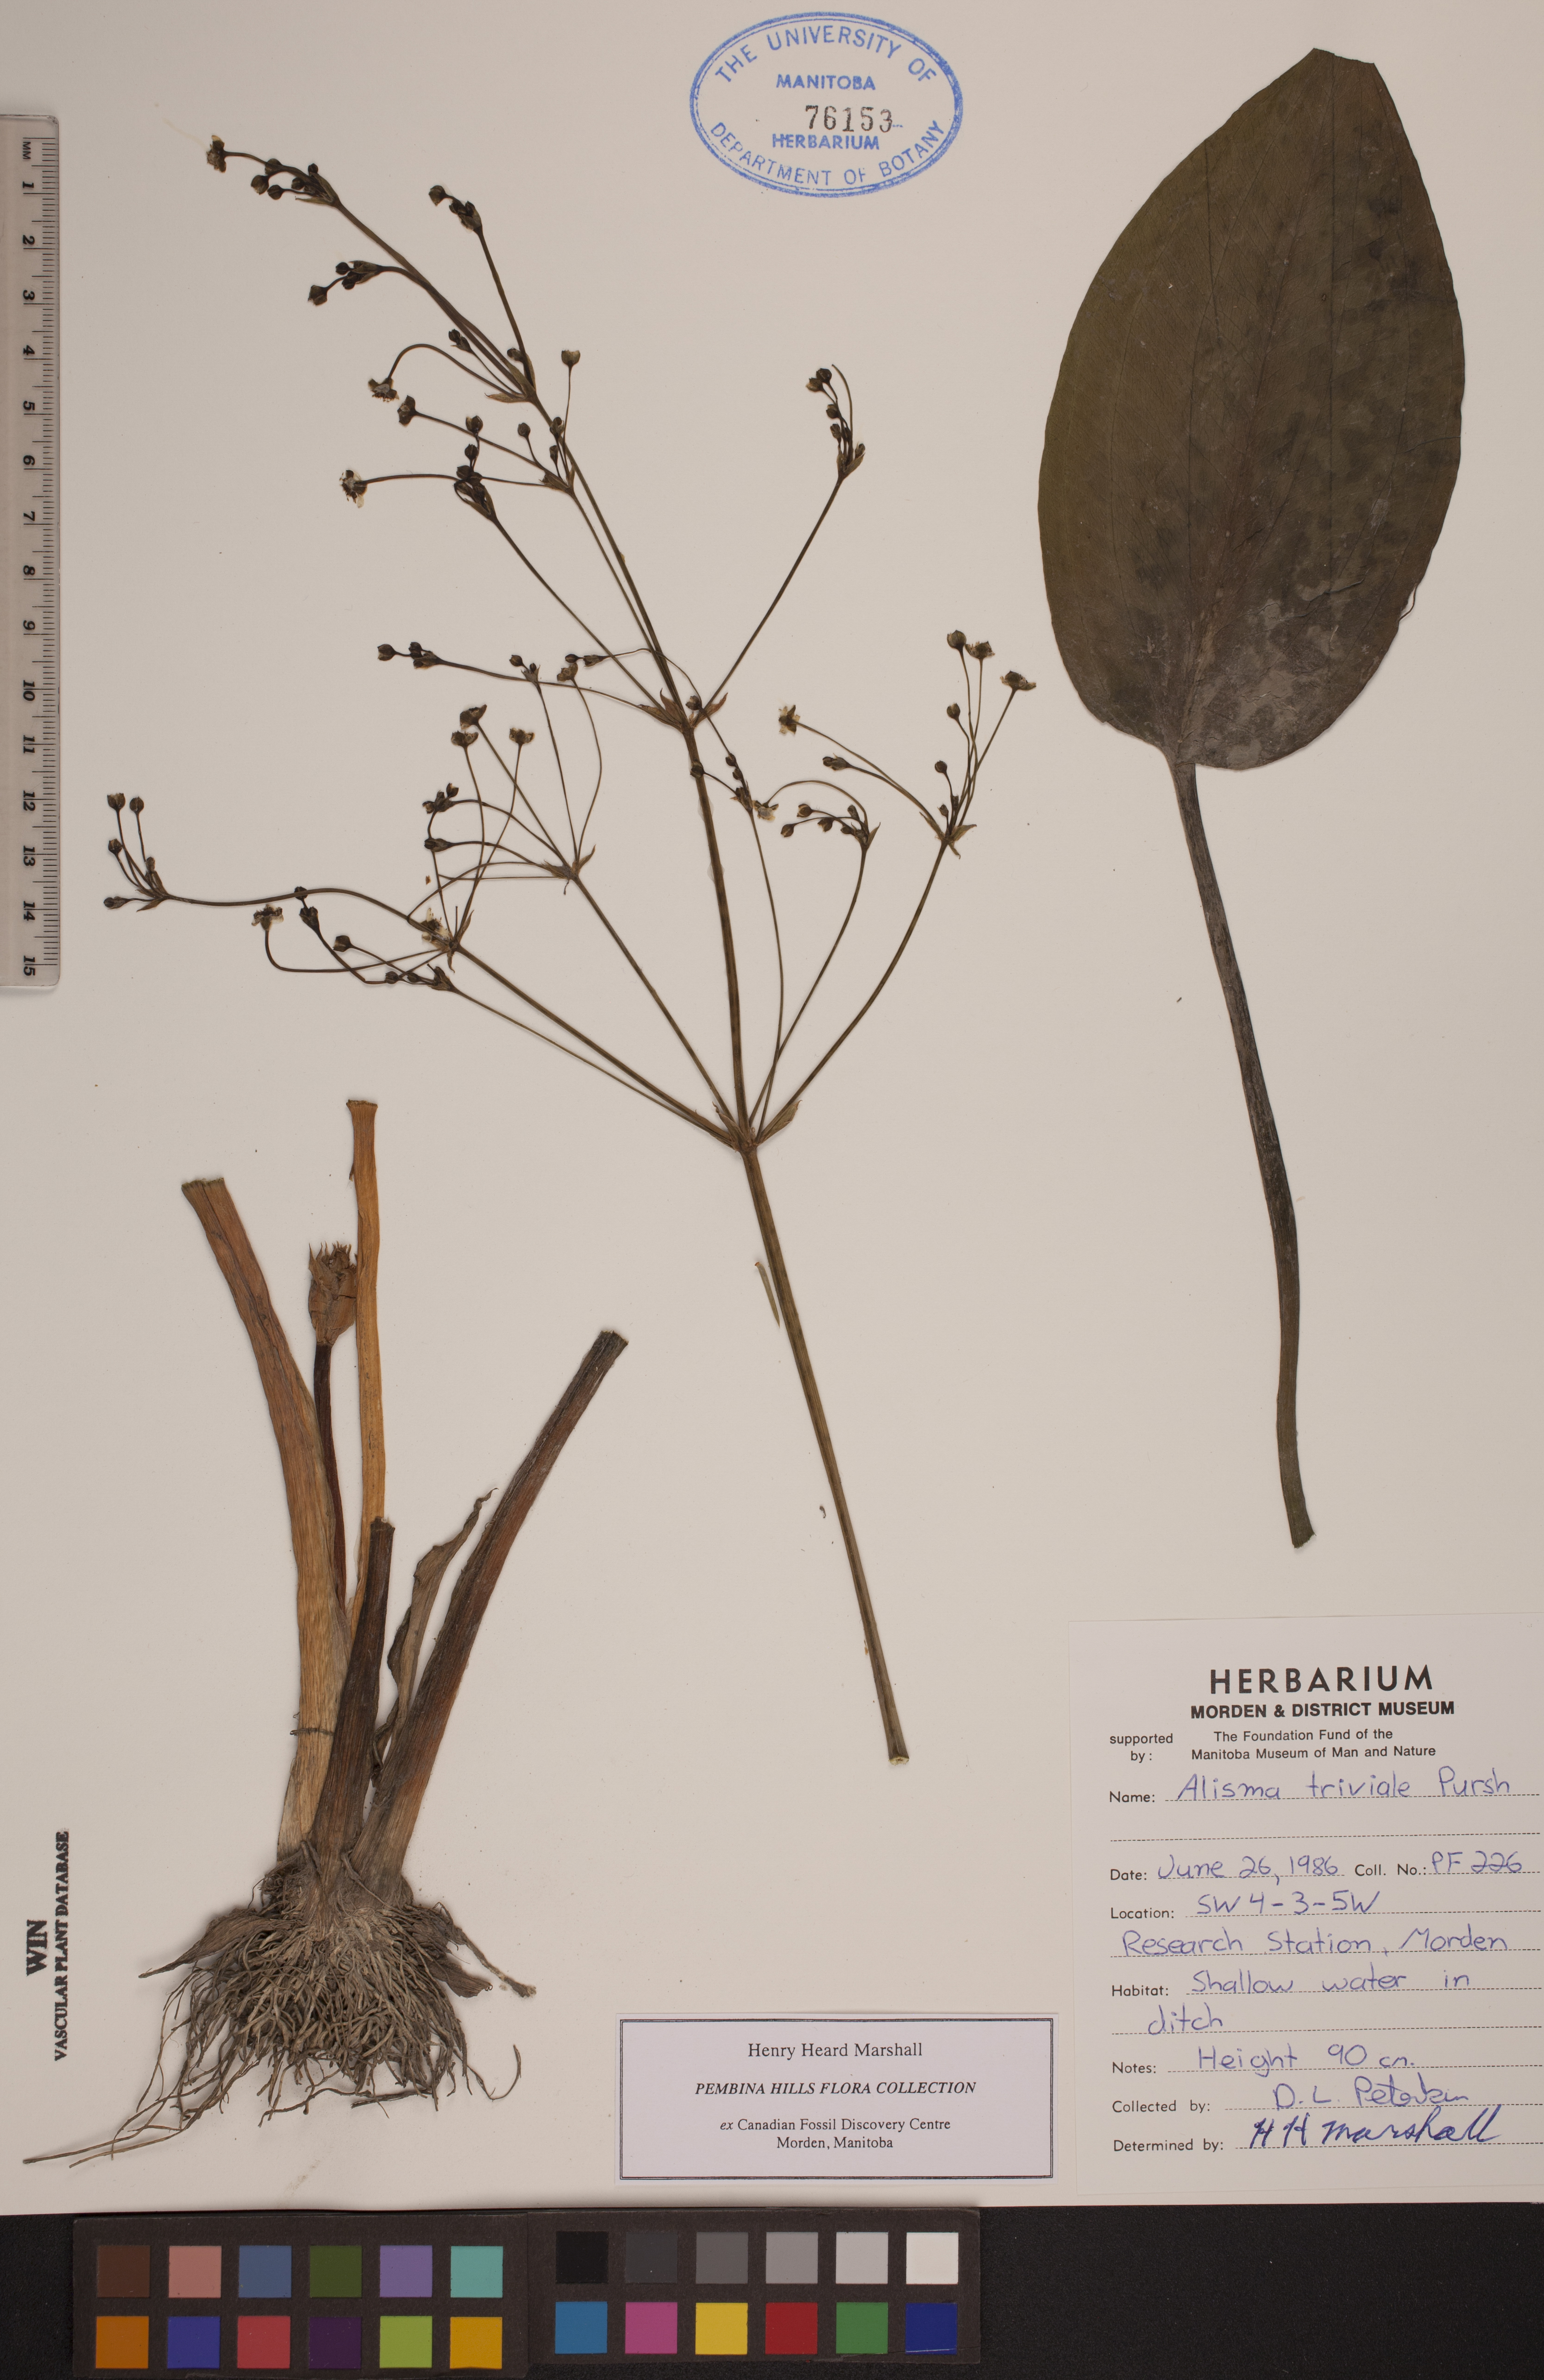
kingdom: Plantae
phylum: Tracheophyta
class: Liliopsida
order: Alismatales
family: Alismataceae
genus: Alisma
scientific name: Alisma triviale
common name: Northern water-plantain
